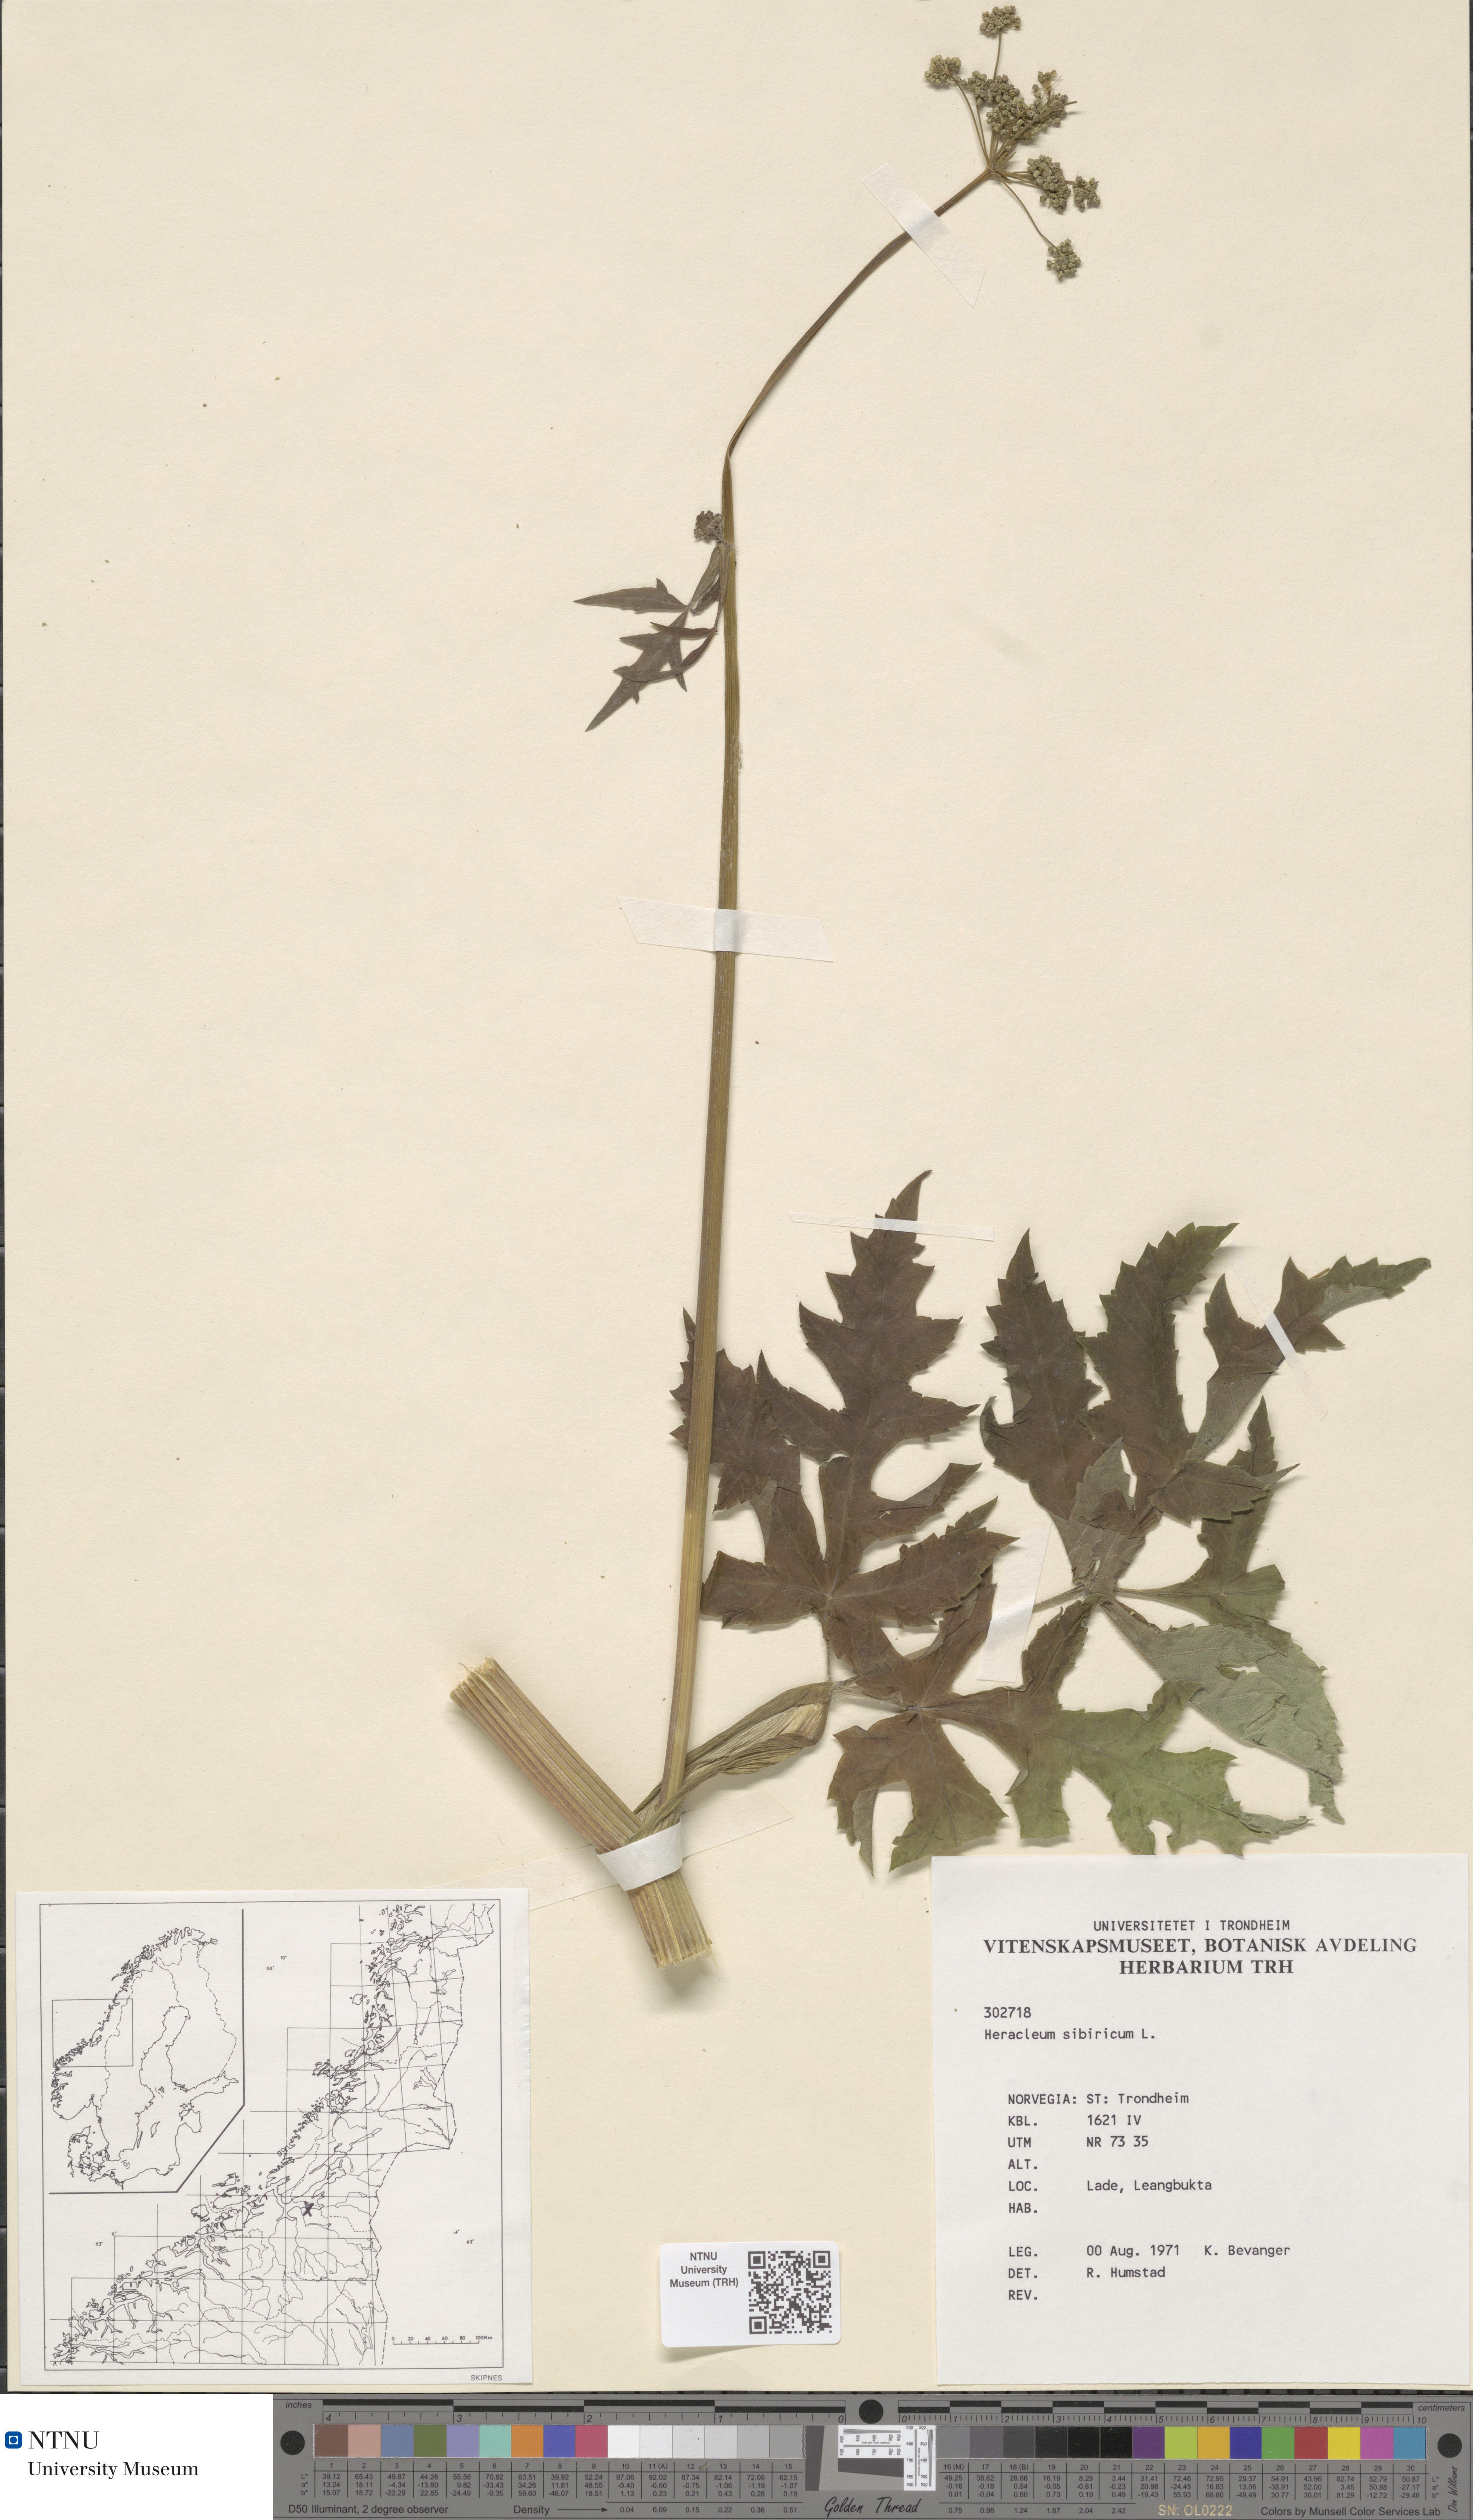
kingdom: Plantae
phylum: Tracheophyta
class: Magnoliopsida
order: Apiales
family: Apiaceae
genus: Heracleum
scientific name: Heracleum sphondylium
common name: Hogweed
